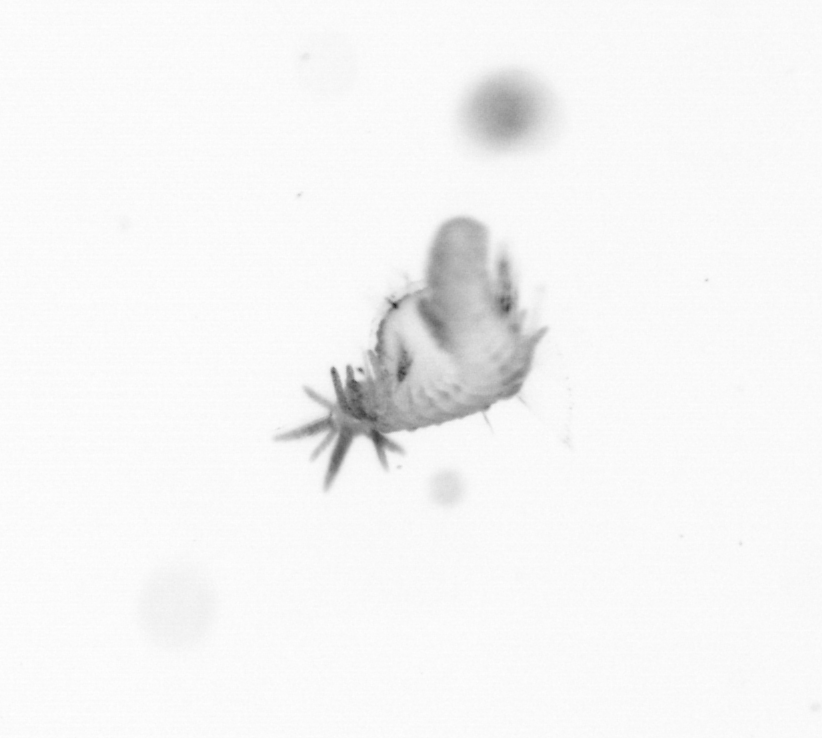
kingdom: Animalia
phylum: Annelida
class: Polychaeta
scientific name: Polychaeta
